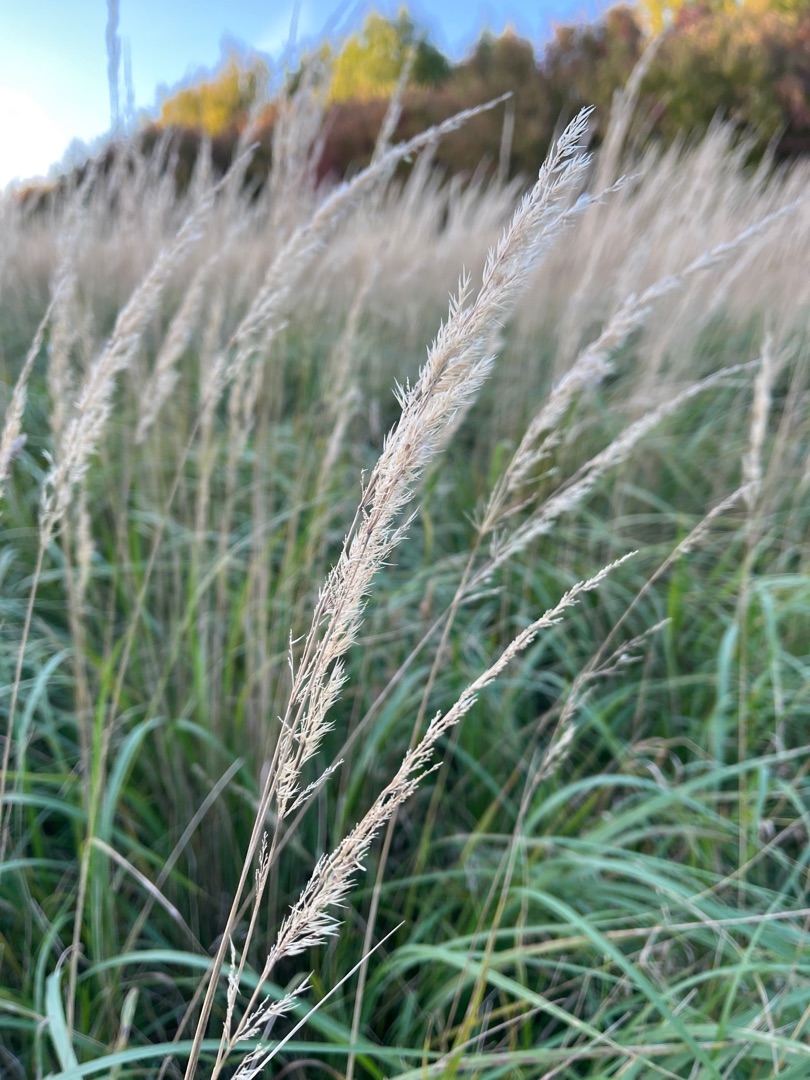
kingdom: Plantae
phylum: Tracheophyta
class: Liliopsida
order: Poales
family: Poaceae
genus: Calamagrostis
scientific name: Calamagrostis epigejos
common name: Bjerg-rørhvene
